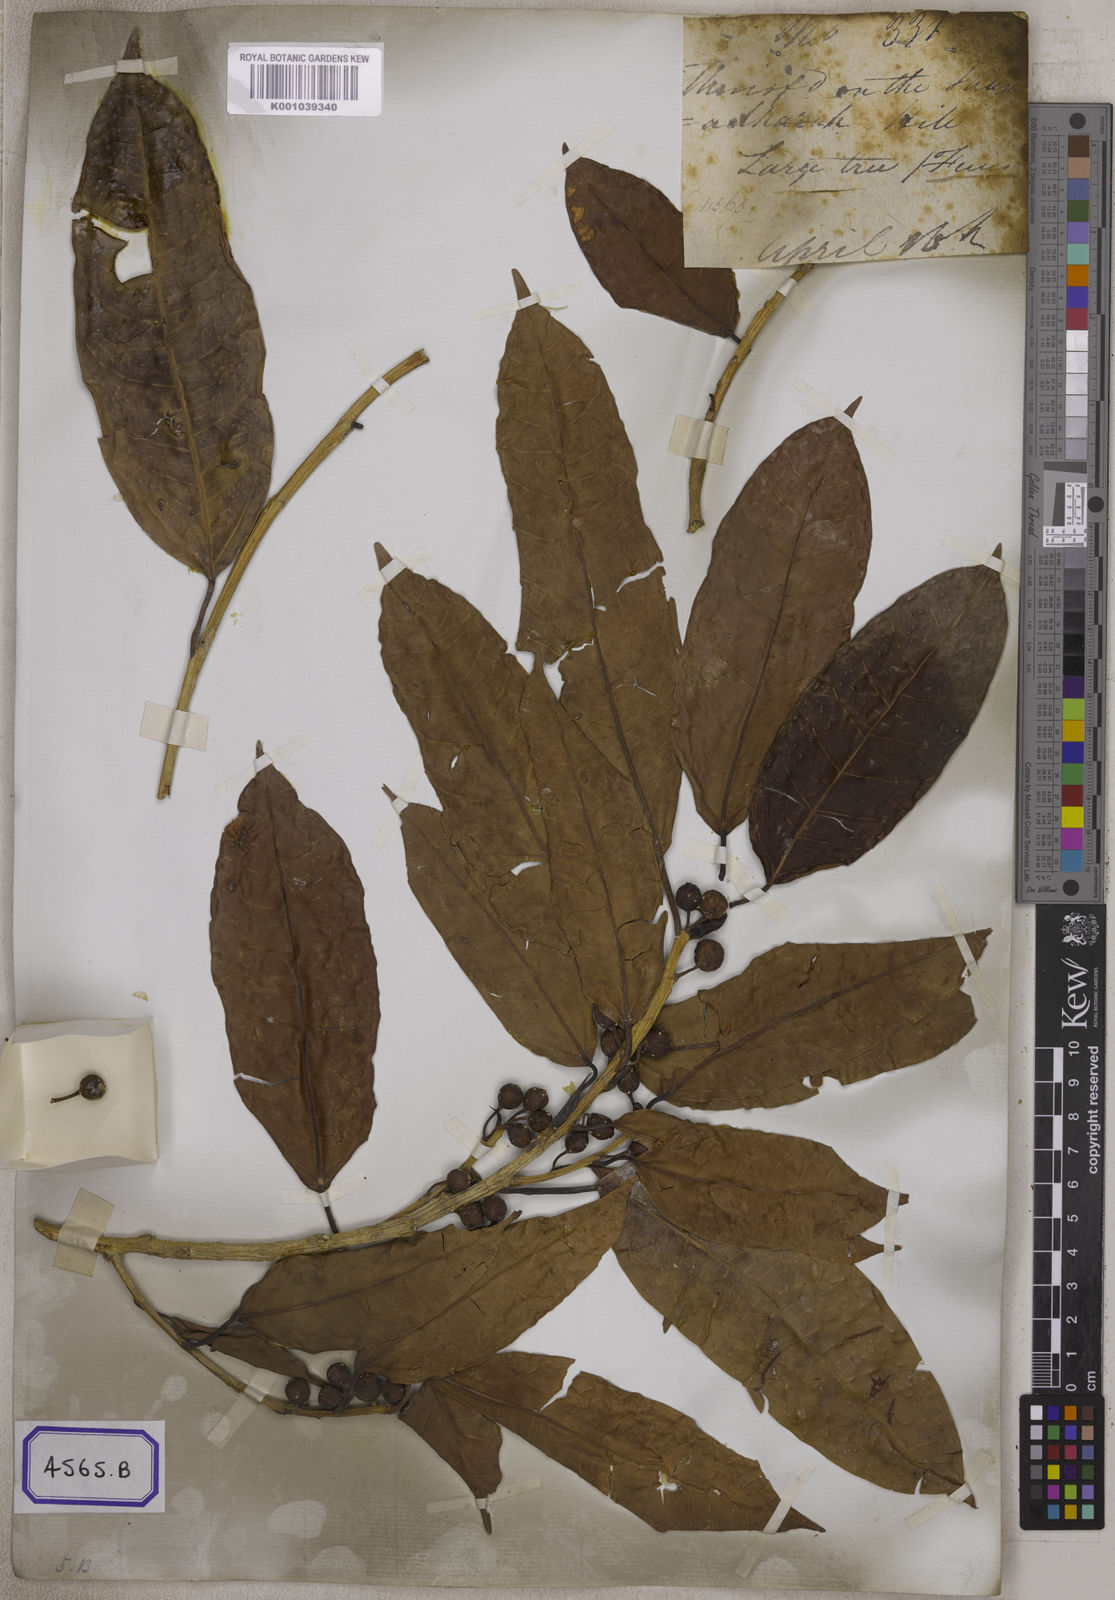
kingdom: Plantae
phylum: Tracheophyta
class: Magnoliopsida
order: Rosales
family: Moraceae
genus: Ficus
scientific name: Ficus
